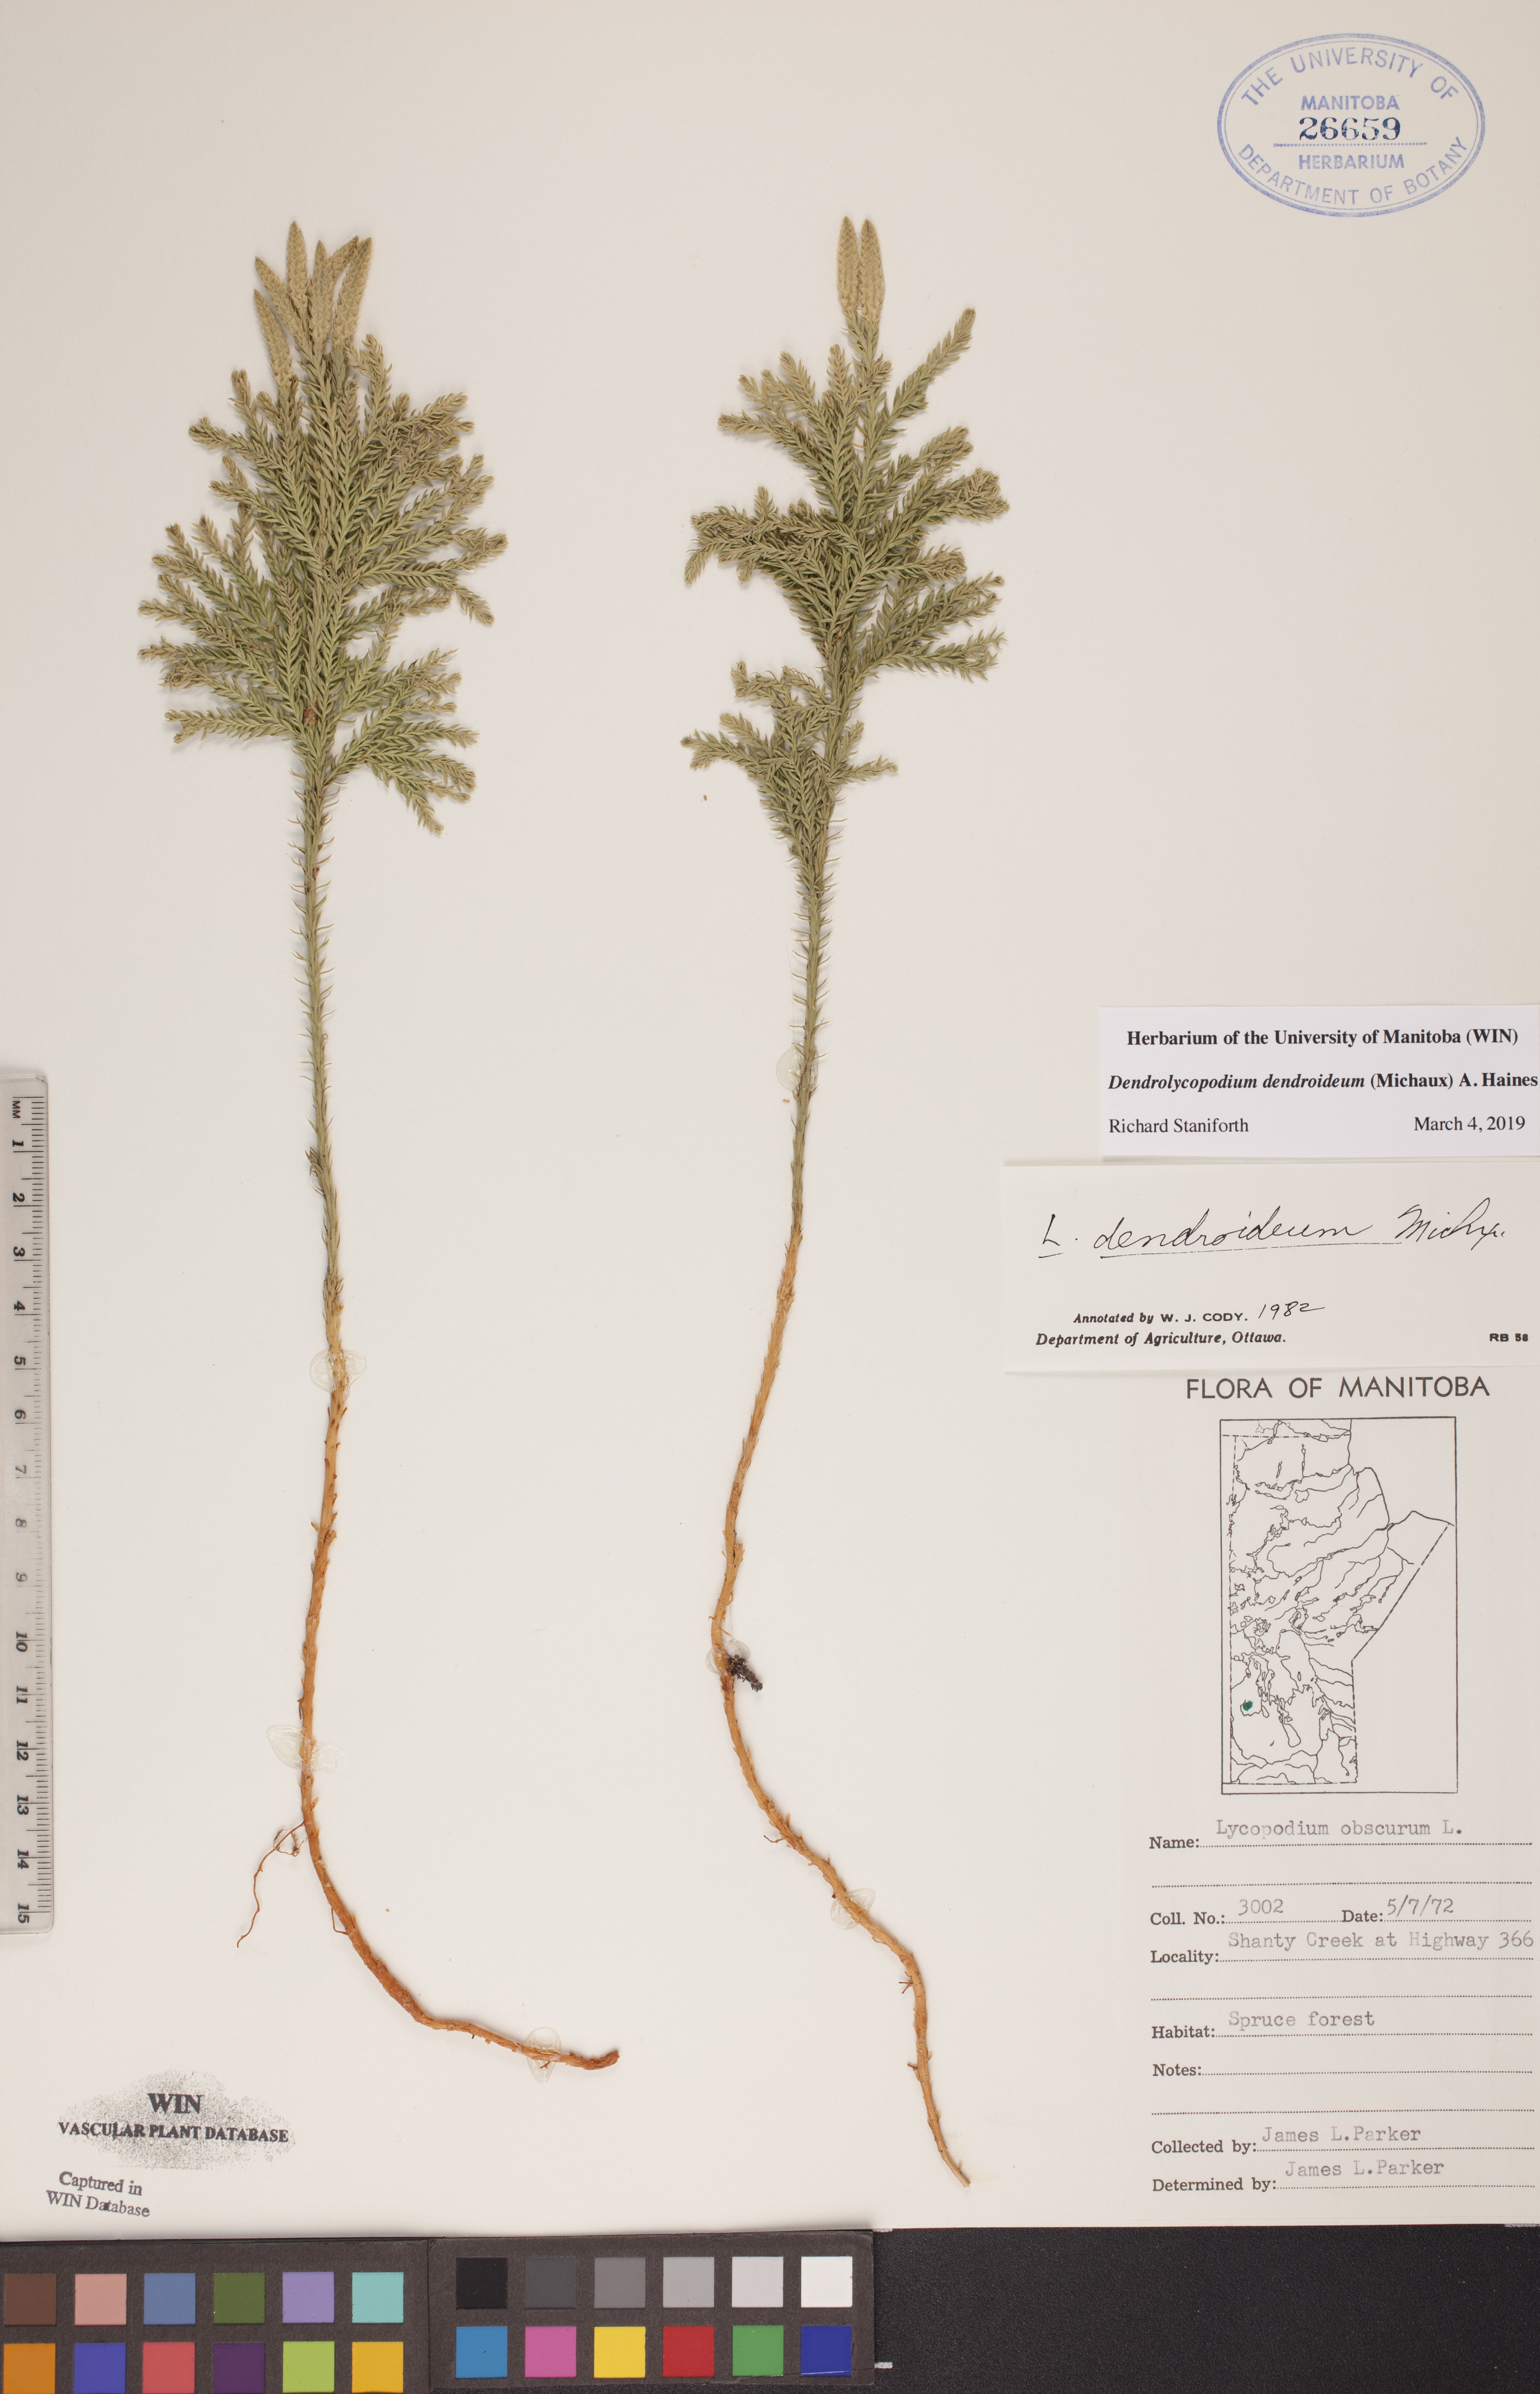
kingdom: Plantae
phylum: Tracheophyta
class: Lycopodiopsida
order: Lycopodiales
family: Lycopodiaceae
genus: Dendrolycopodium
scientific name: Dendrolycopodium dendroideum
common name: Northern tree-clubmoss
